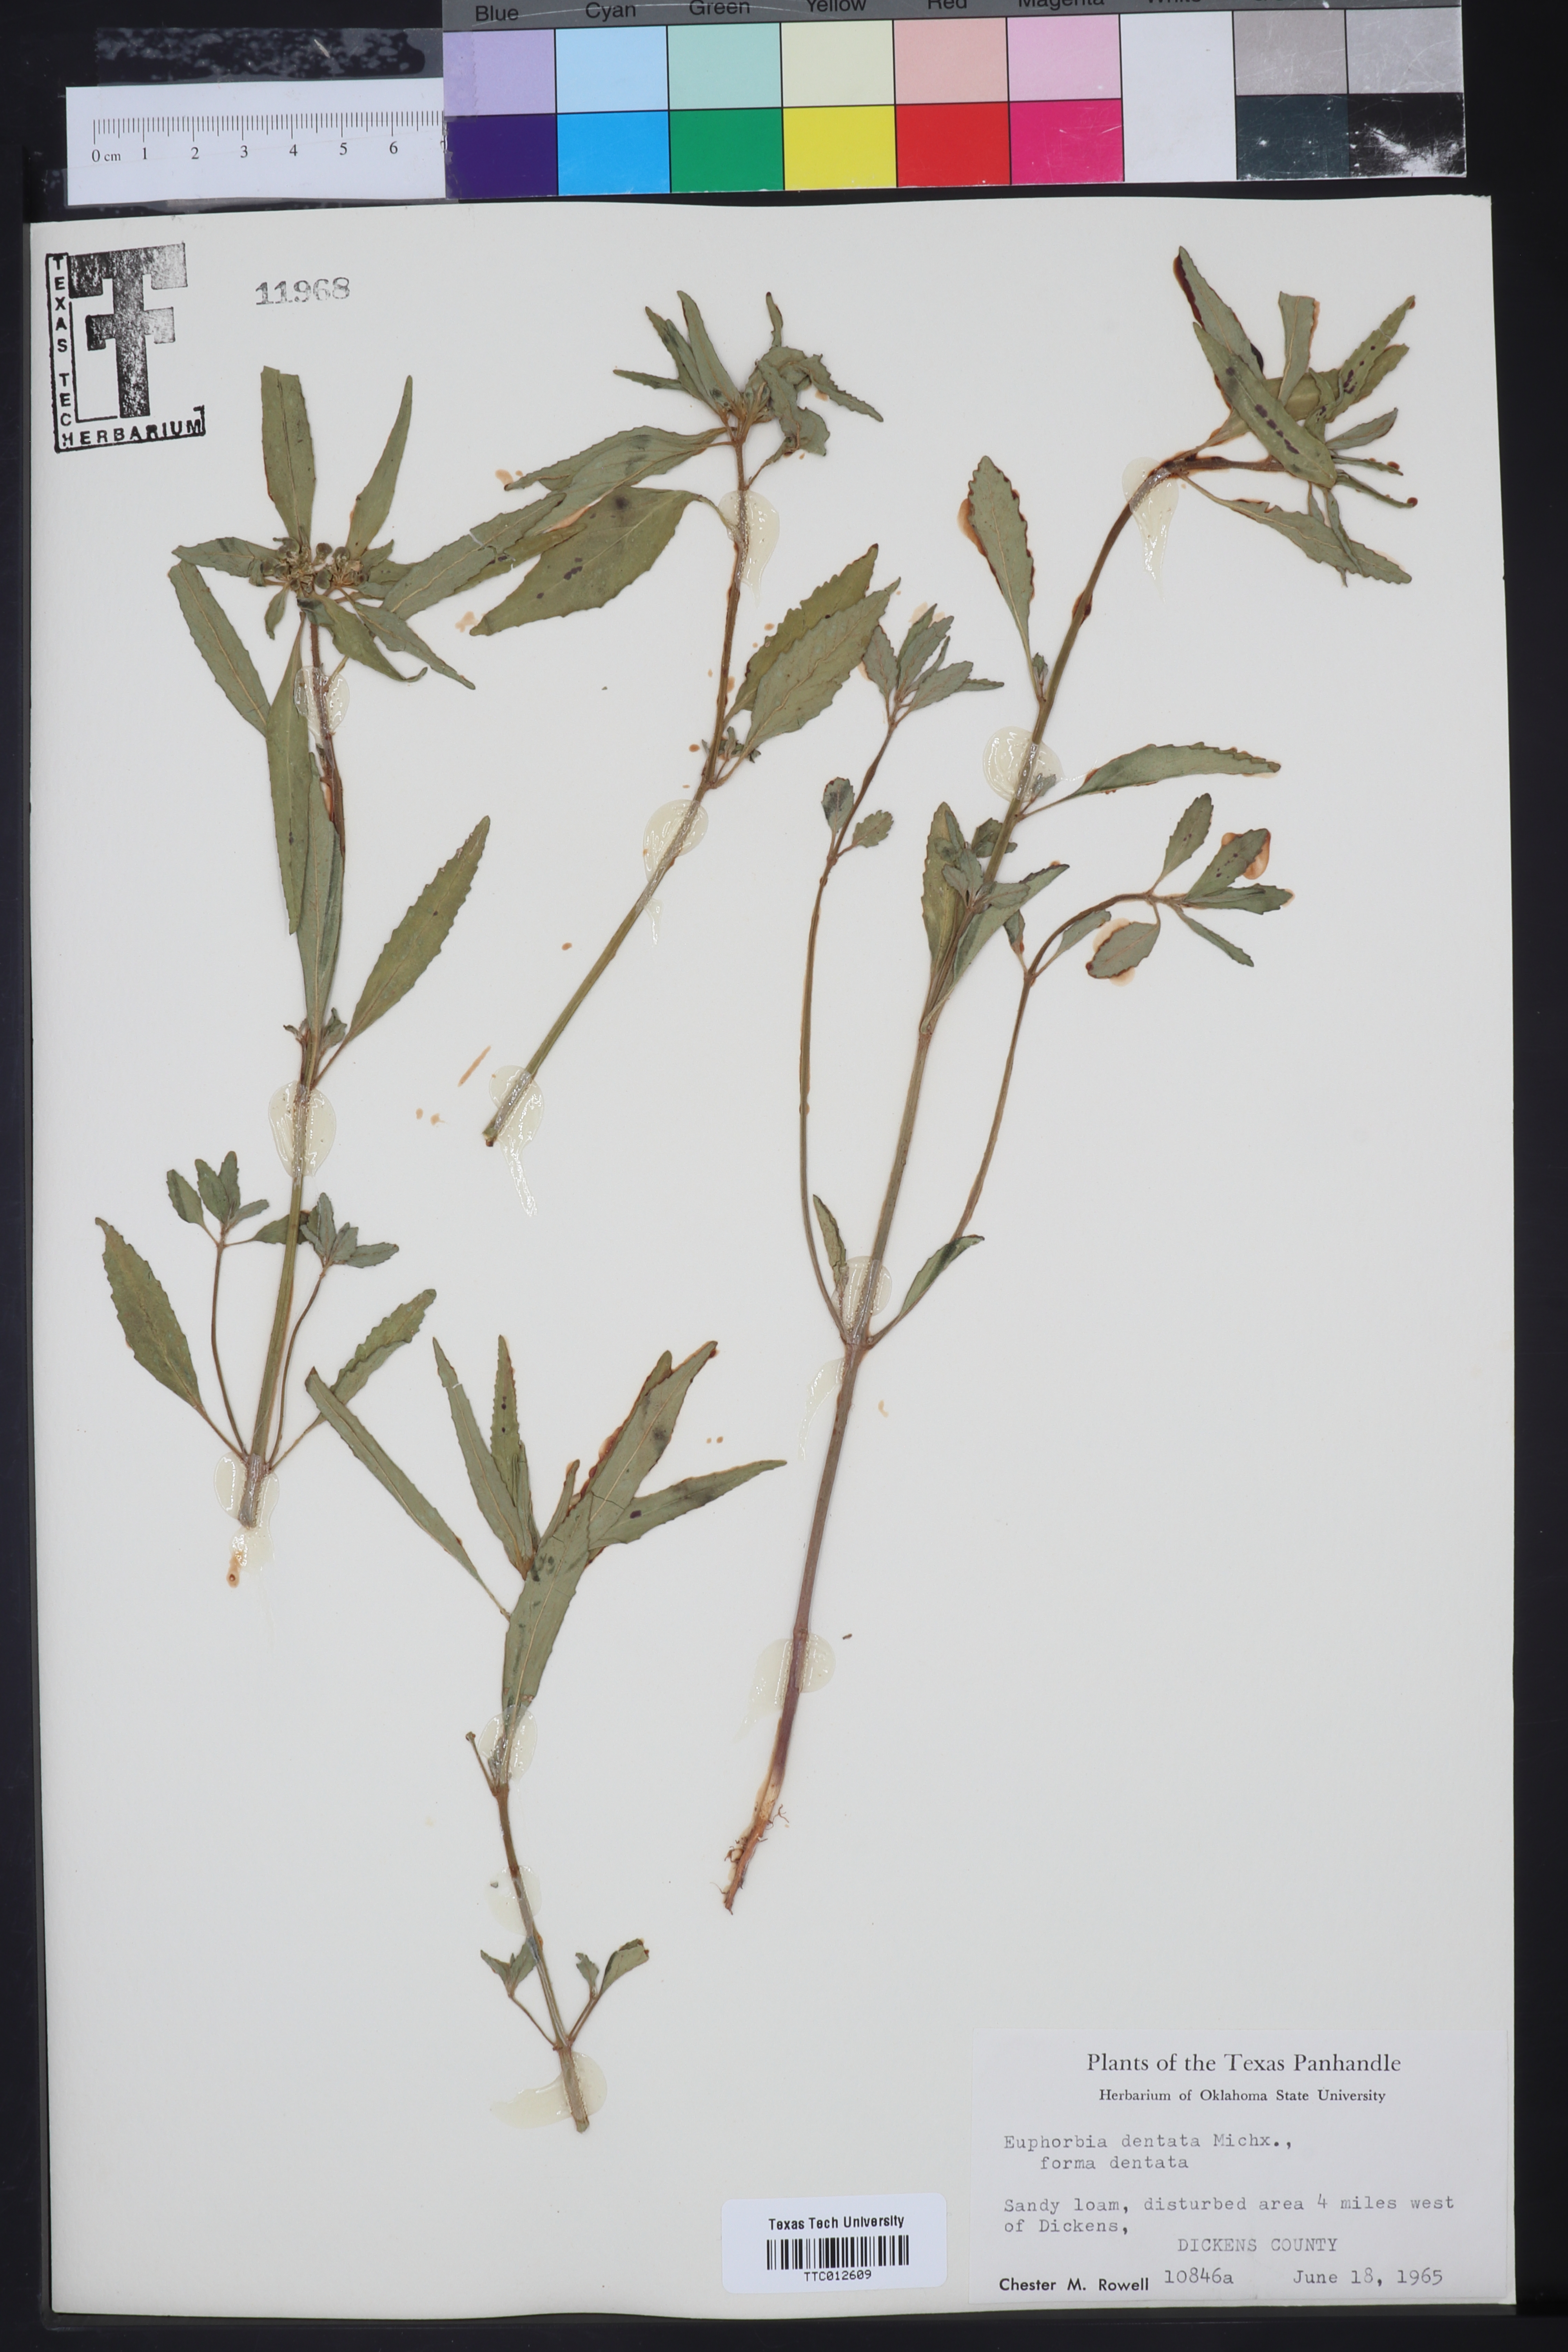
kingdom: Plantae
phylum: Tracheophyta
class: Magnoliopsida
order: Malpighiales
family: Euphorbiaceae
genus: Euphorbia
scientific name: Euphorbia dentata
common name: Dentate spurge
